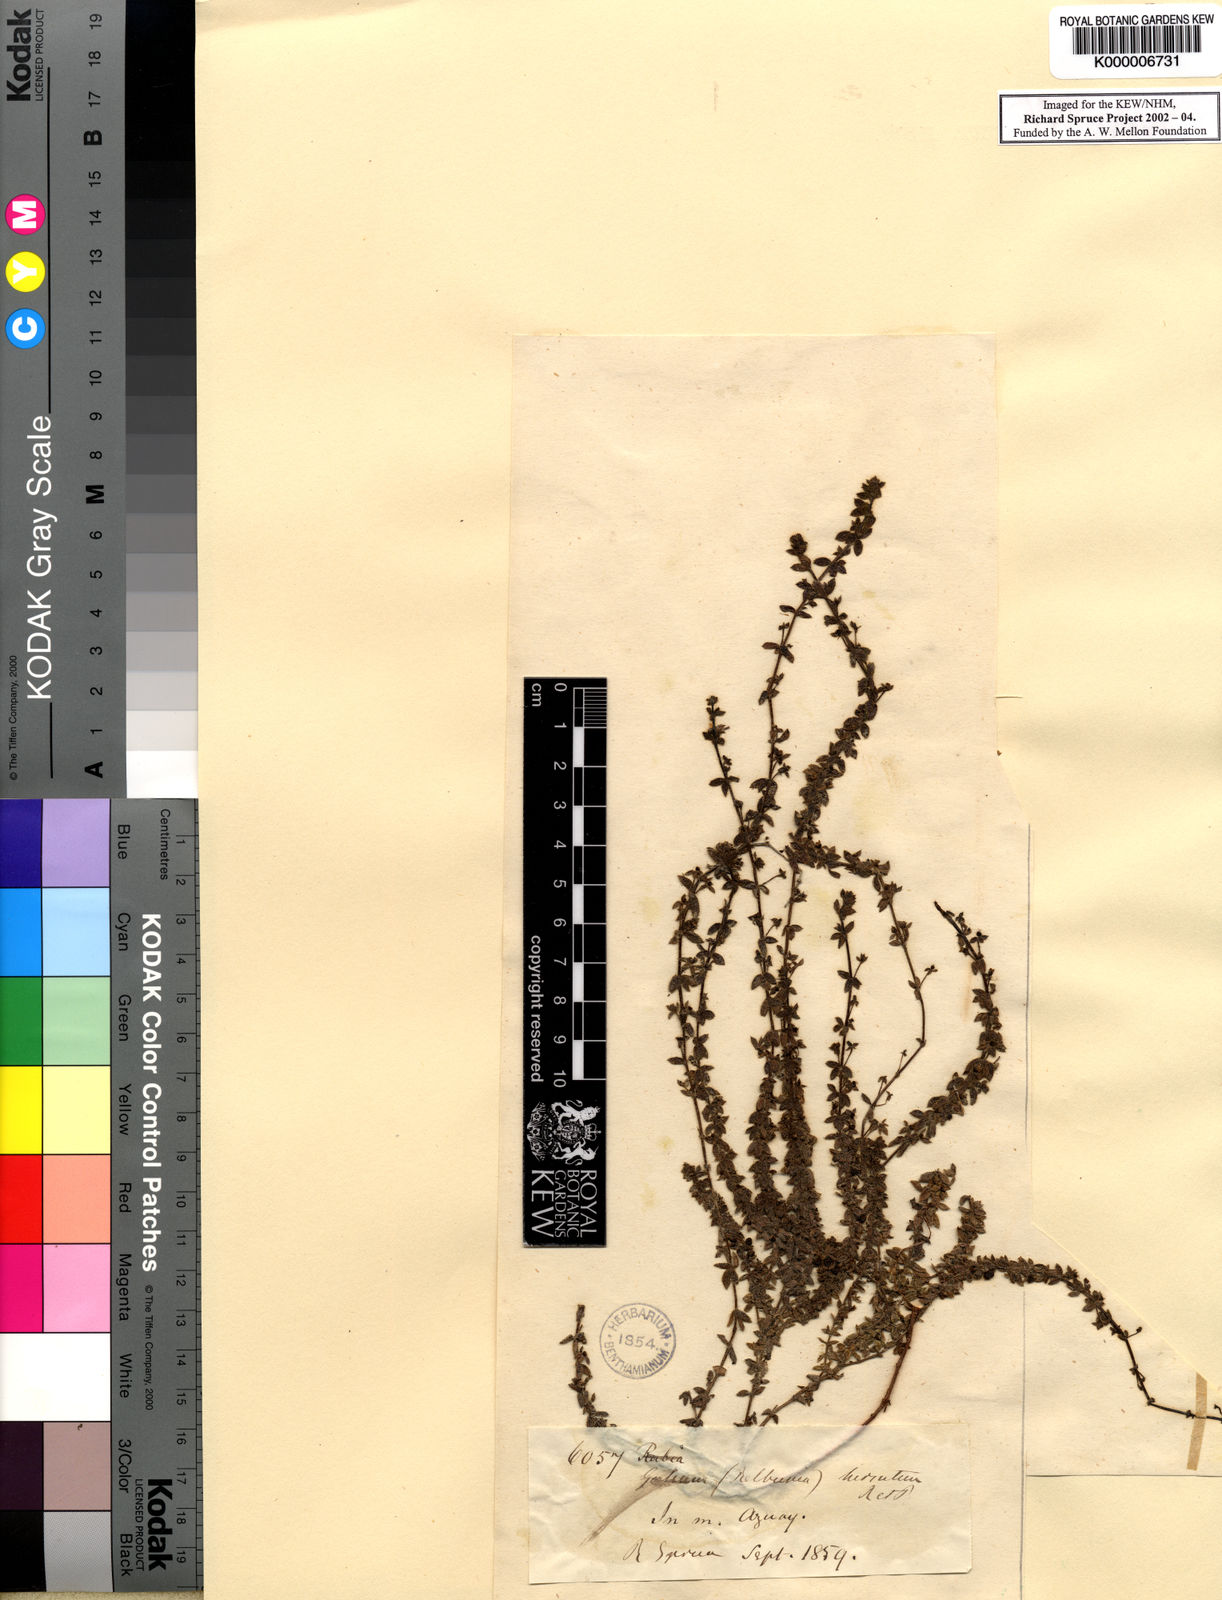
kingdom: Plantae
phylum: Tracheophyta
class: Magnoliopsida
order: Gentianales
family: Rubiaceae
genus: Galium
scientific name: Galium corymbosum
